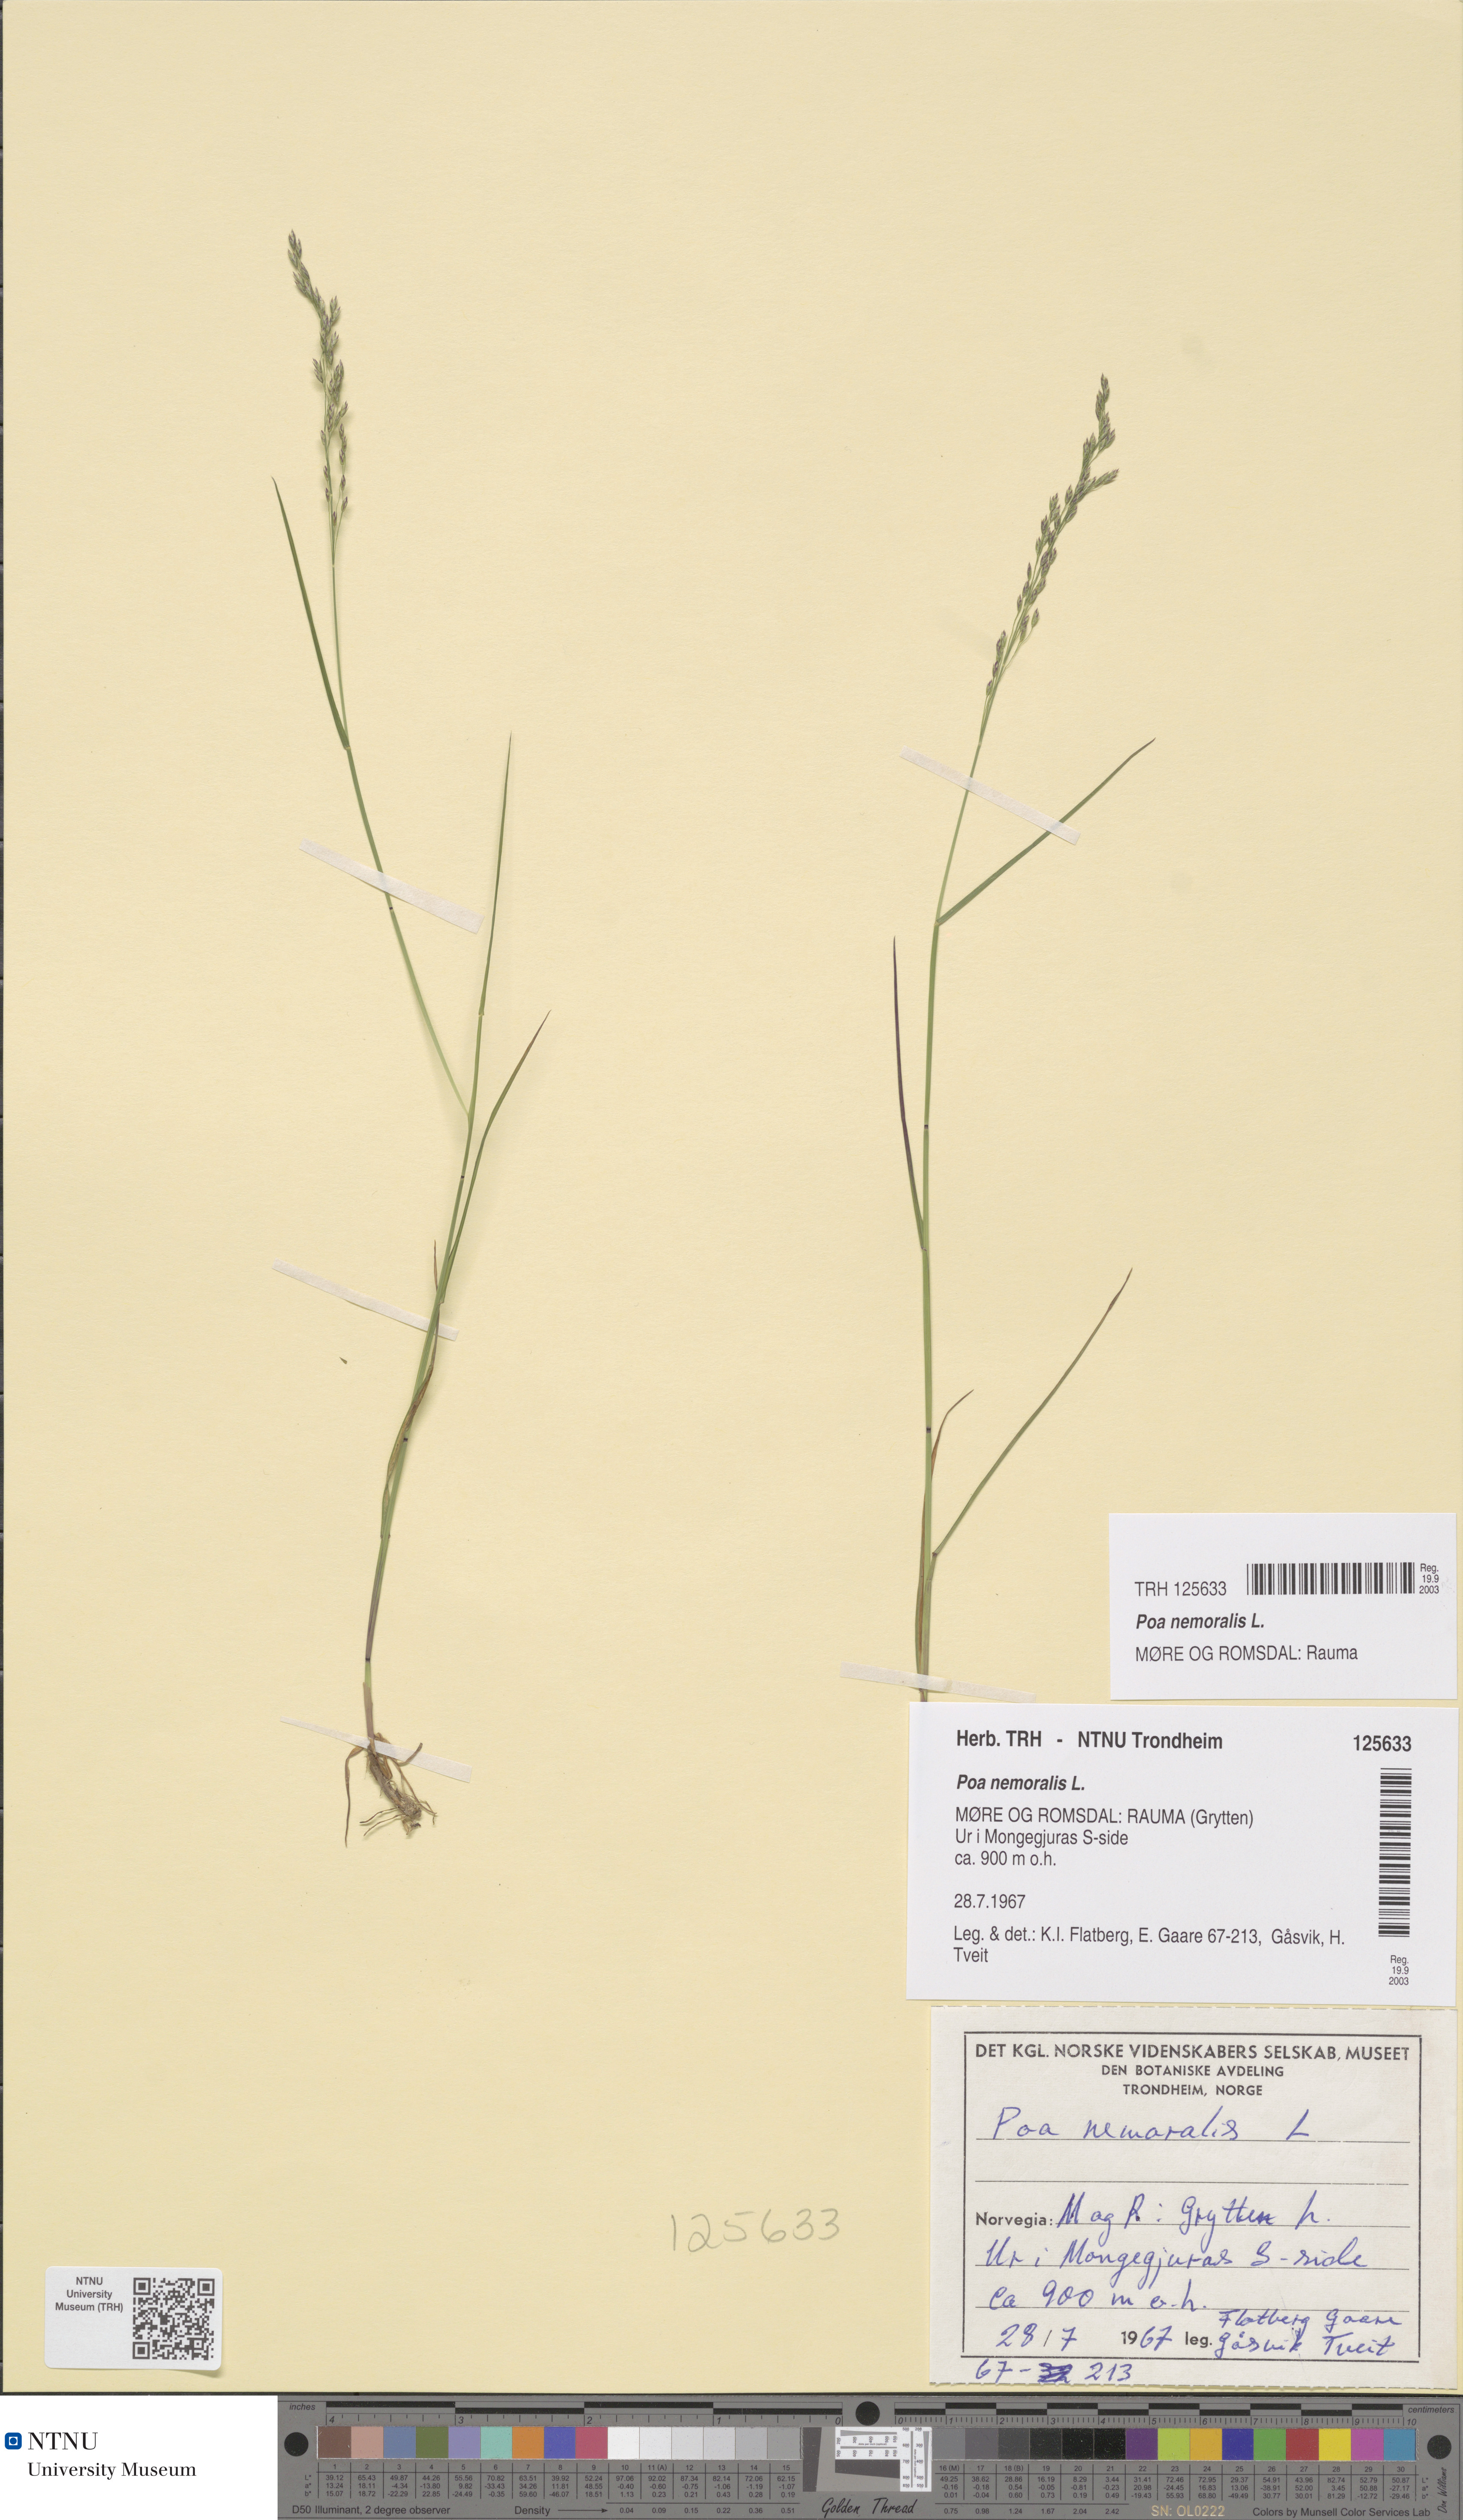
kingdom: Plantae
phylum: Tracheophyta
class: Liliopsida
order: Poales
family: Poaceae
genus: Poa
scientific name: Poa nemoralis
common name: Wood bluegrass
